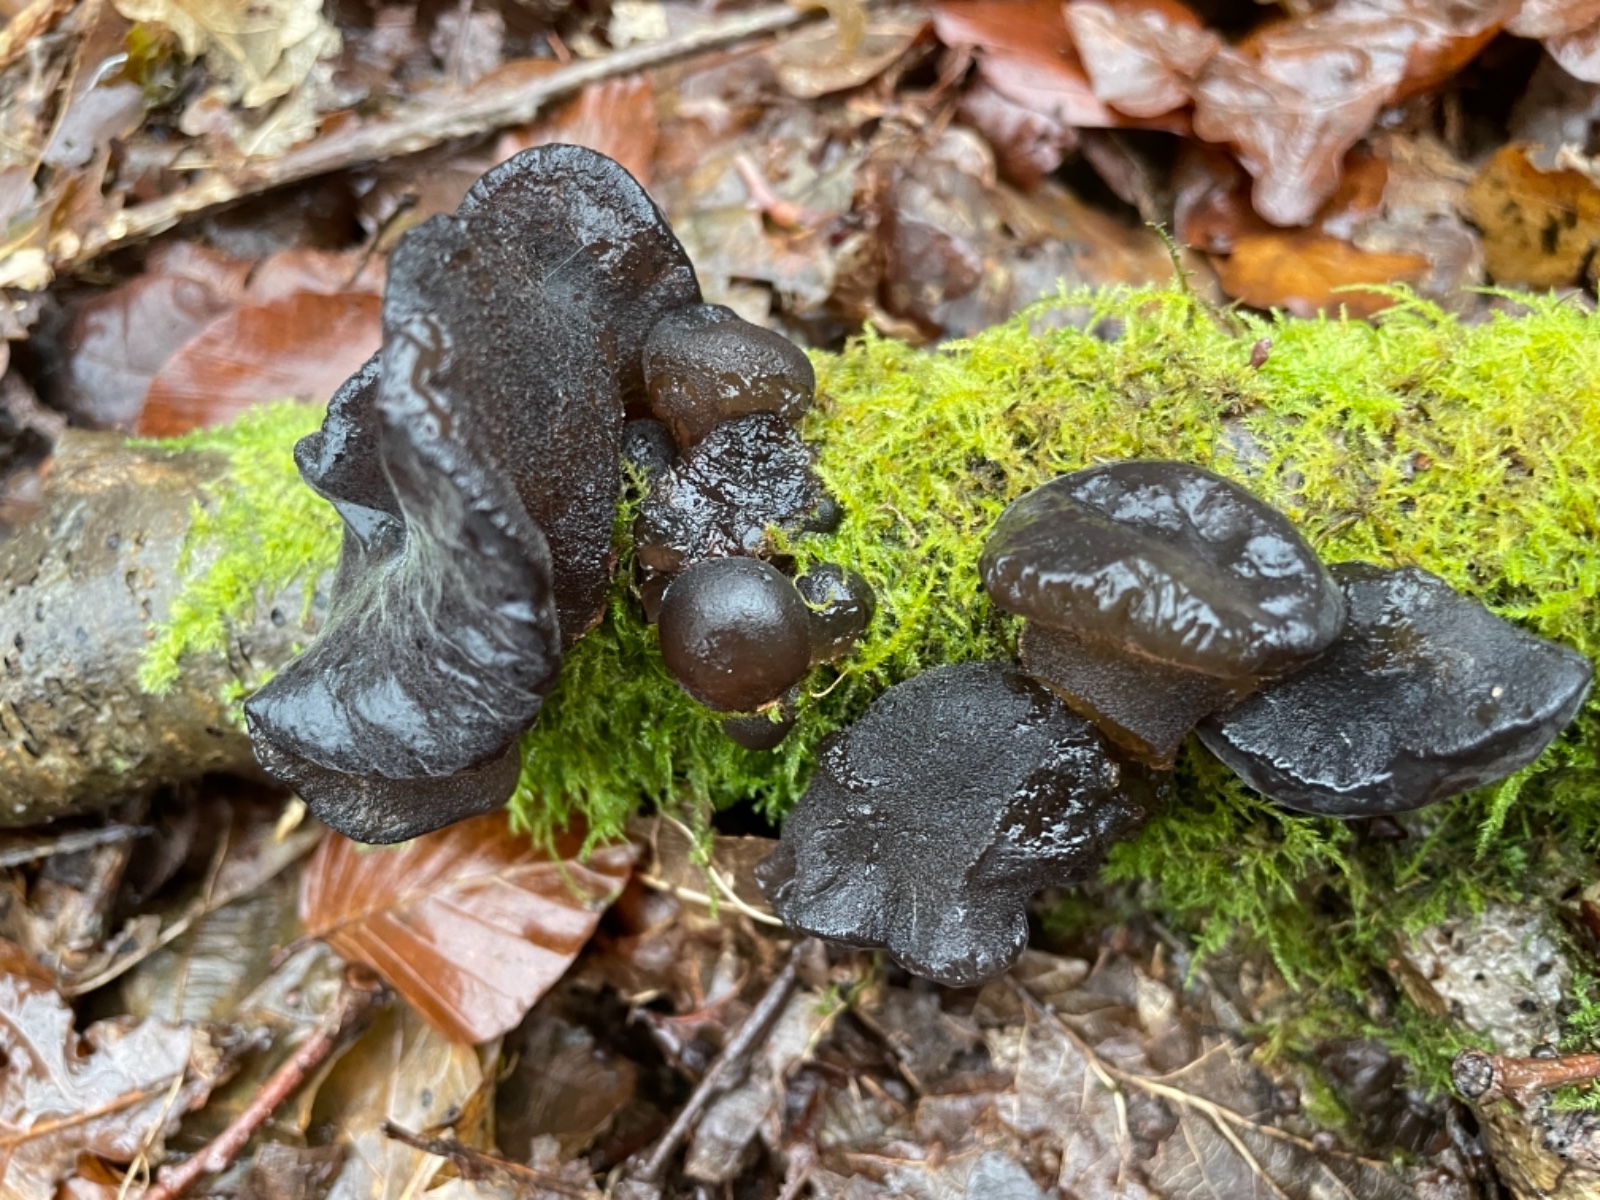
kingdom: Fungi
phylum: Basidiomycota
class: Agaricomycetes
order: Auriculariales
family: Auriculariaceae
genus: Exidia
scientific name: Exidia glandulosa
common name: ege-bævretop
